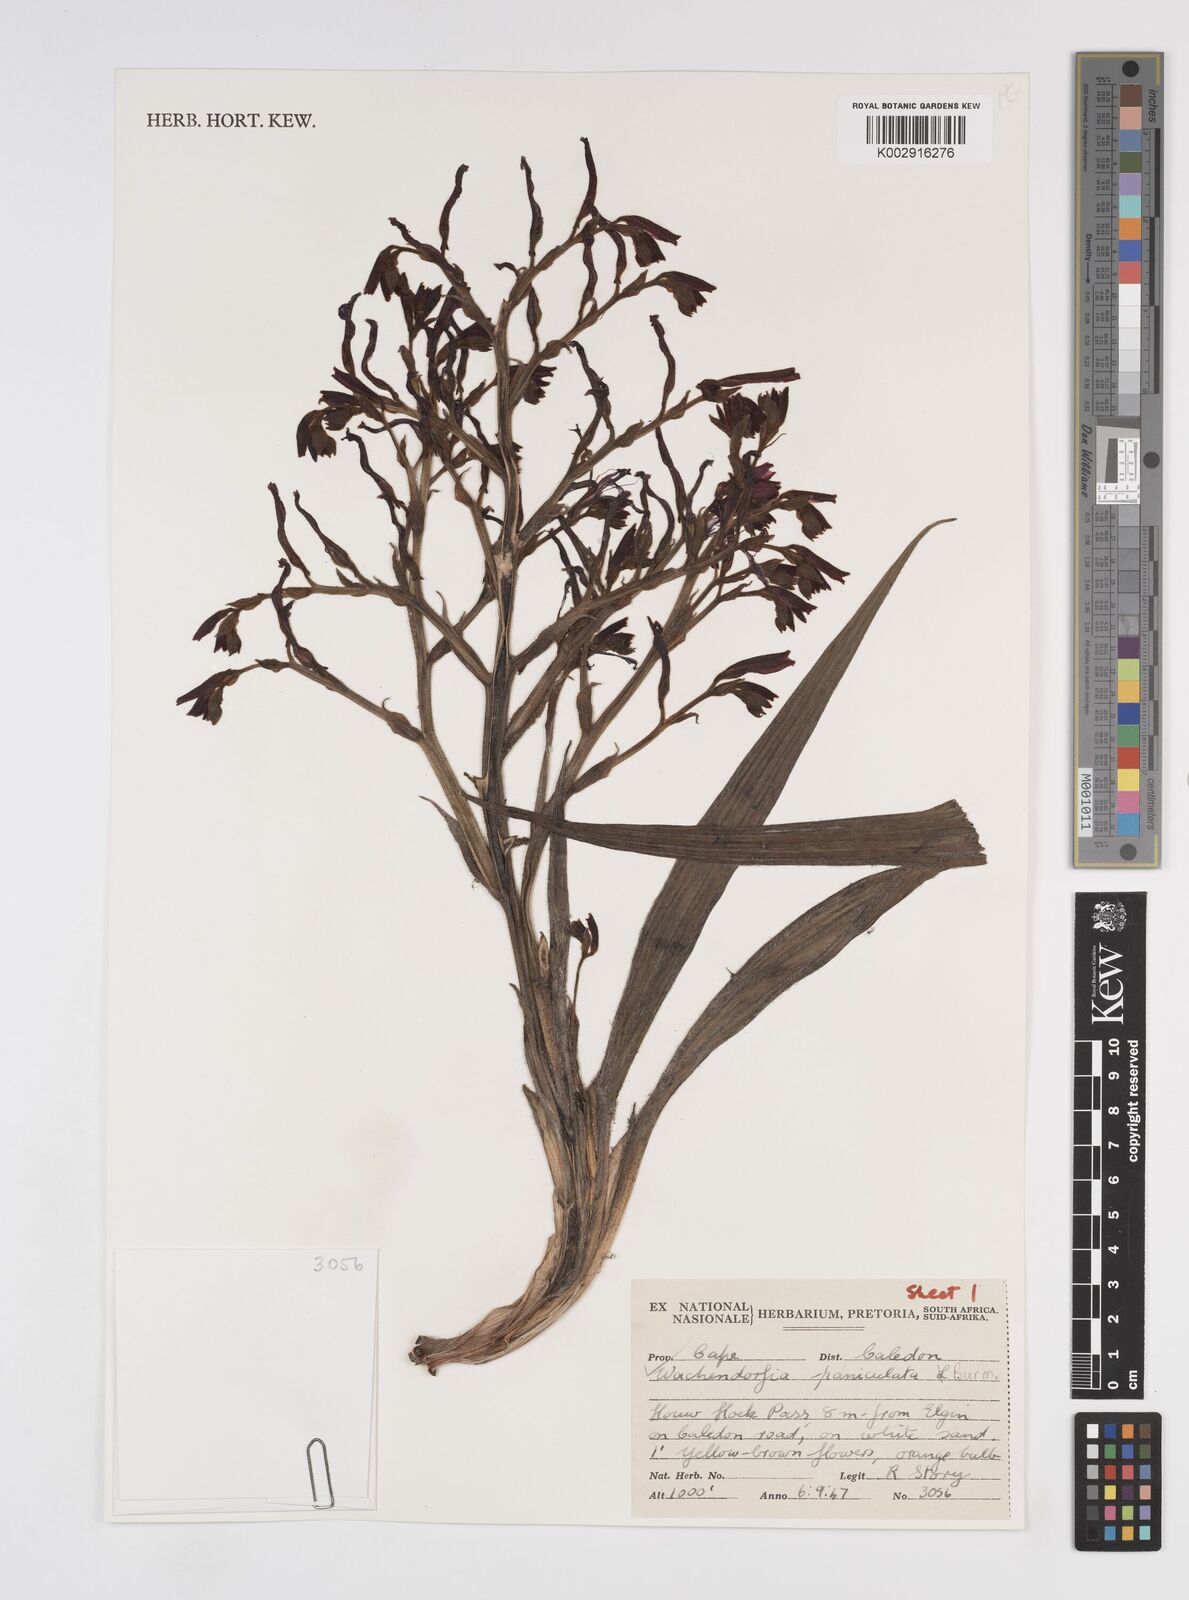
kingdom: Plantae
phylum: Tracheophyta
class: Liliopsida
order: Commelinales
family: Haemodoraceae
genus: Wachendorfia
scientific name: Wachendorfia paniculata
